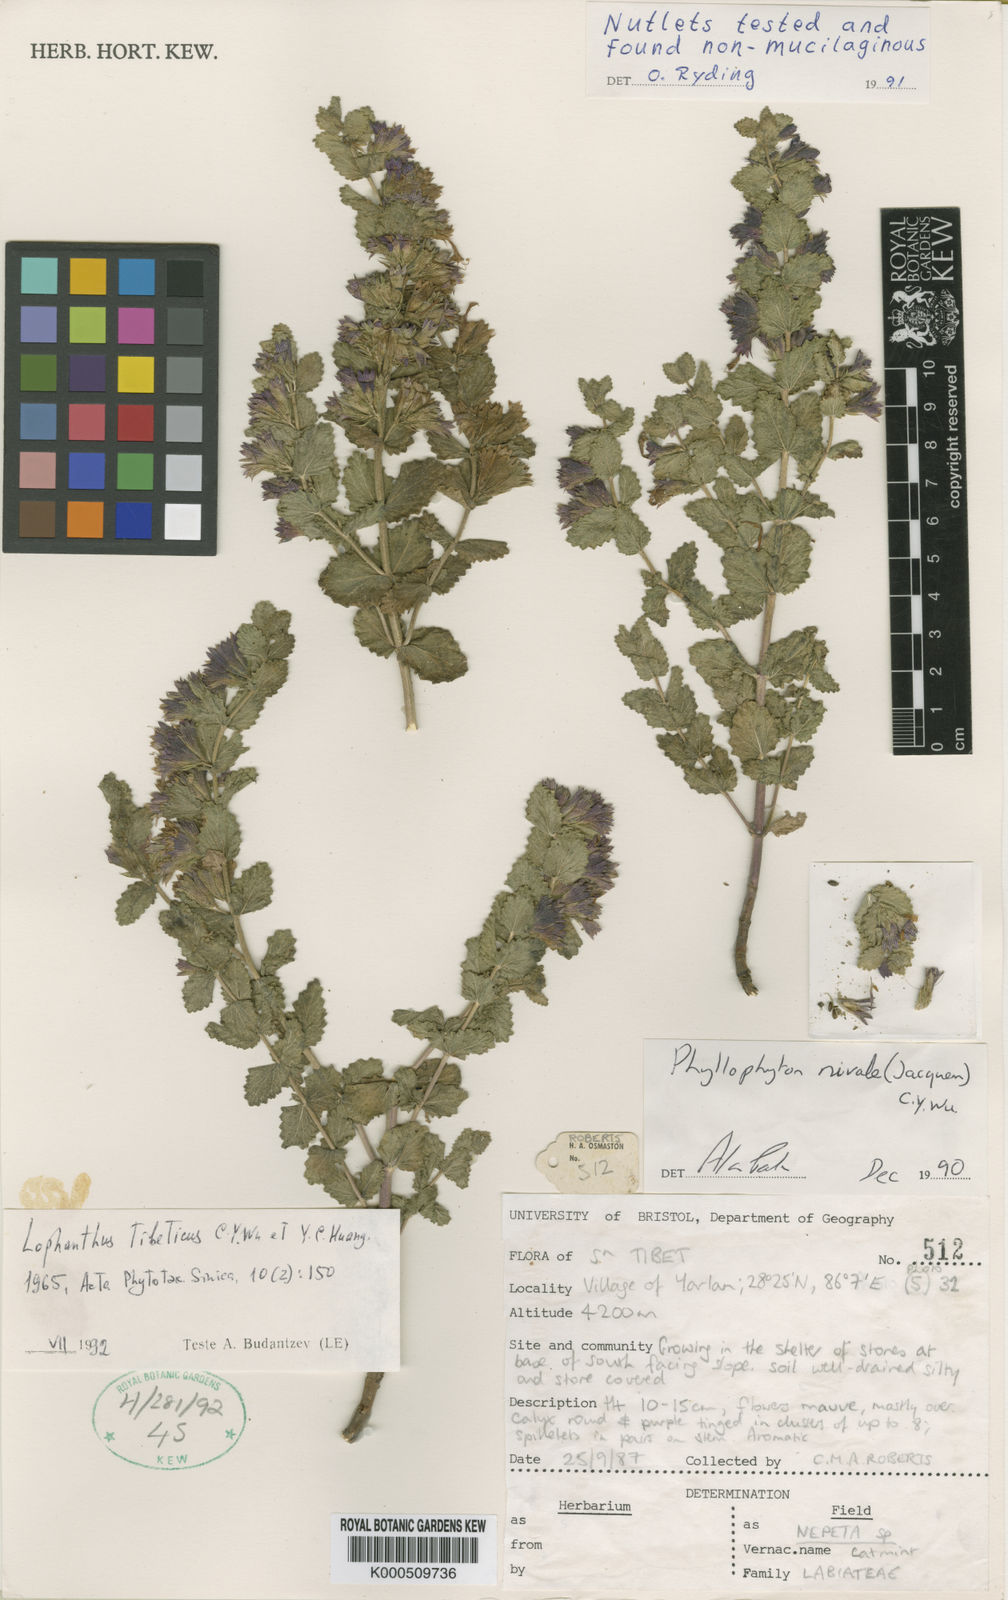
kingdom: Plantae
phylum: Tracheophyta
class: Magnoliopsida
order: Lamiales
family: Lamiaceae
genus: Lophanthus
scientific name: Lophanthus tibeticus
